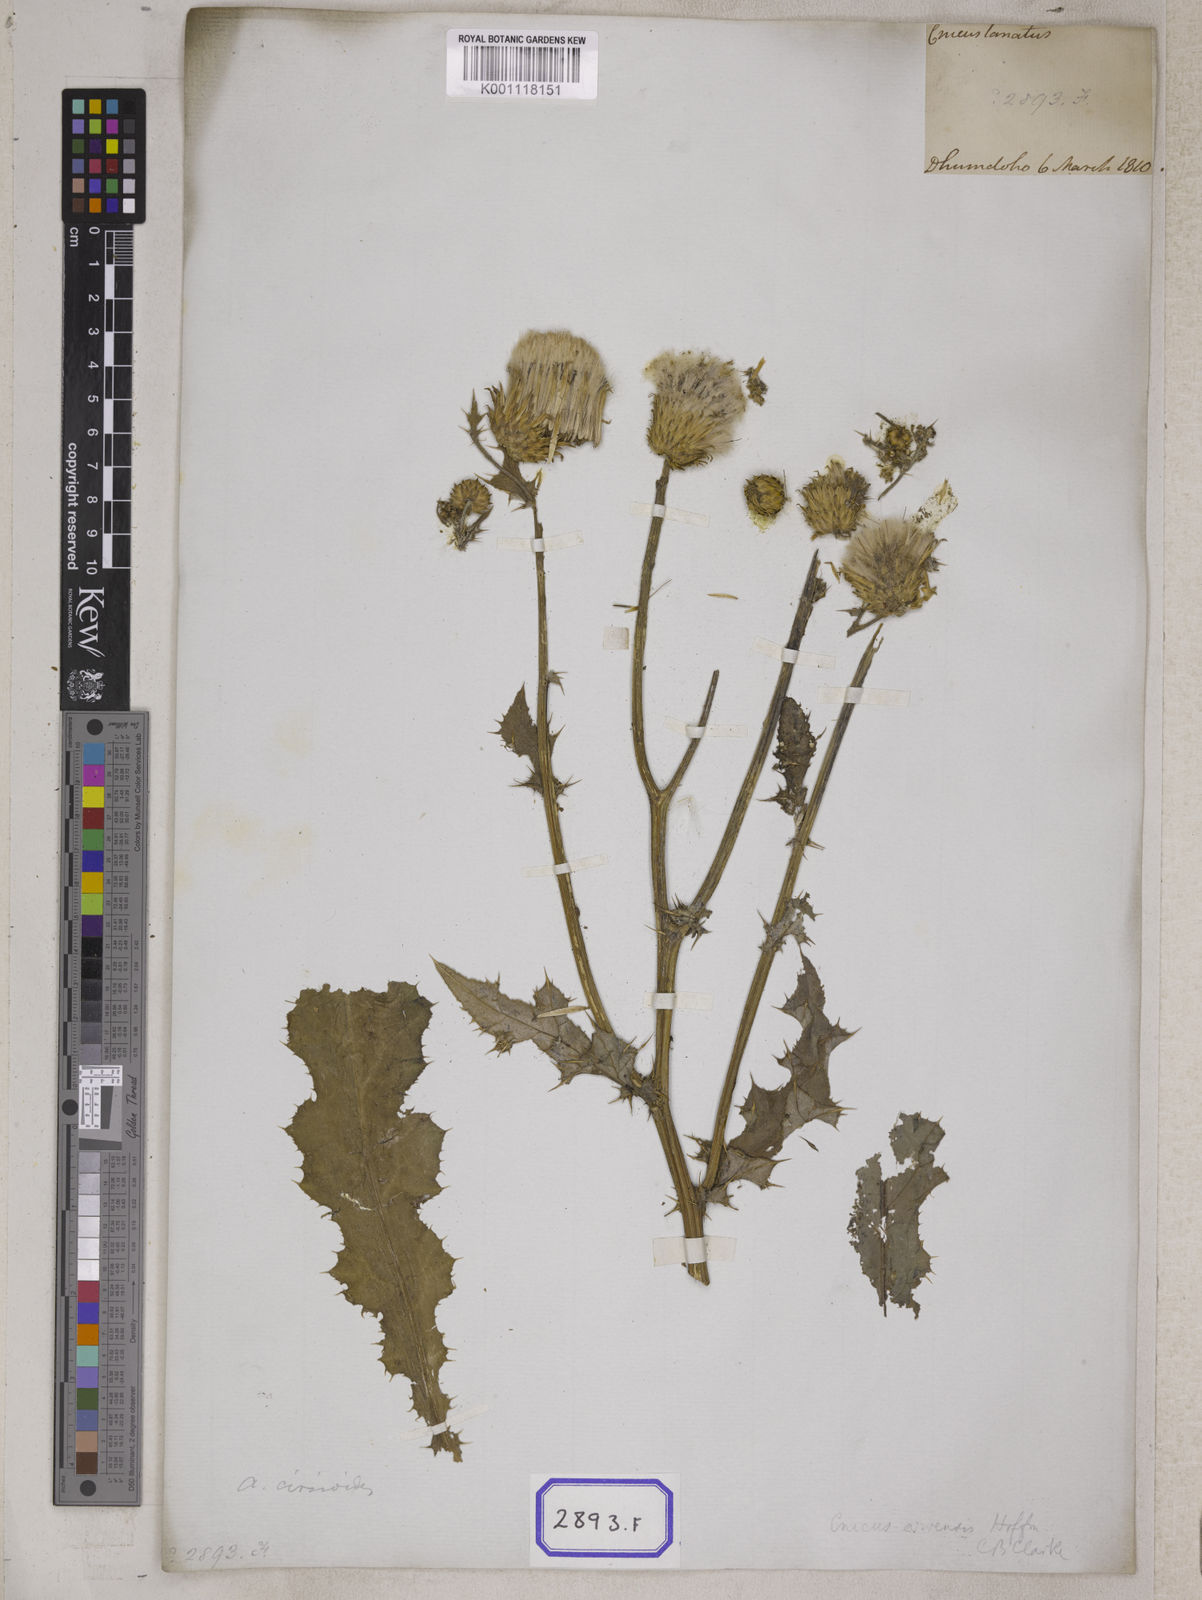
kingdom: Plantae
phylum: Tracheophyta
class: Magnoliopsida
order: Asterales
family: Asteraceae
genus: Jurinea
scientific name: Jurinea heteromalla
